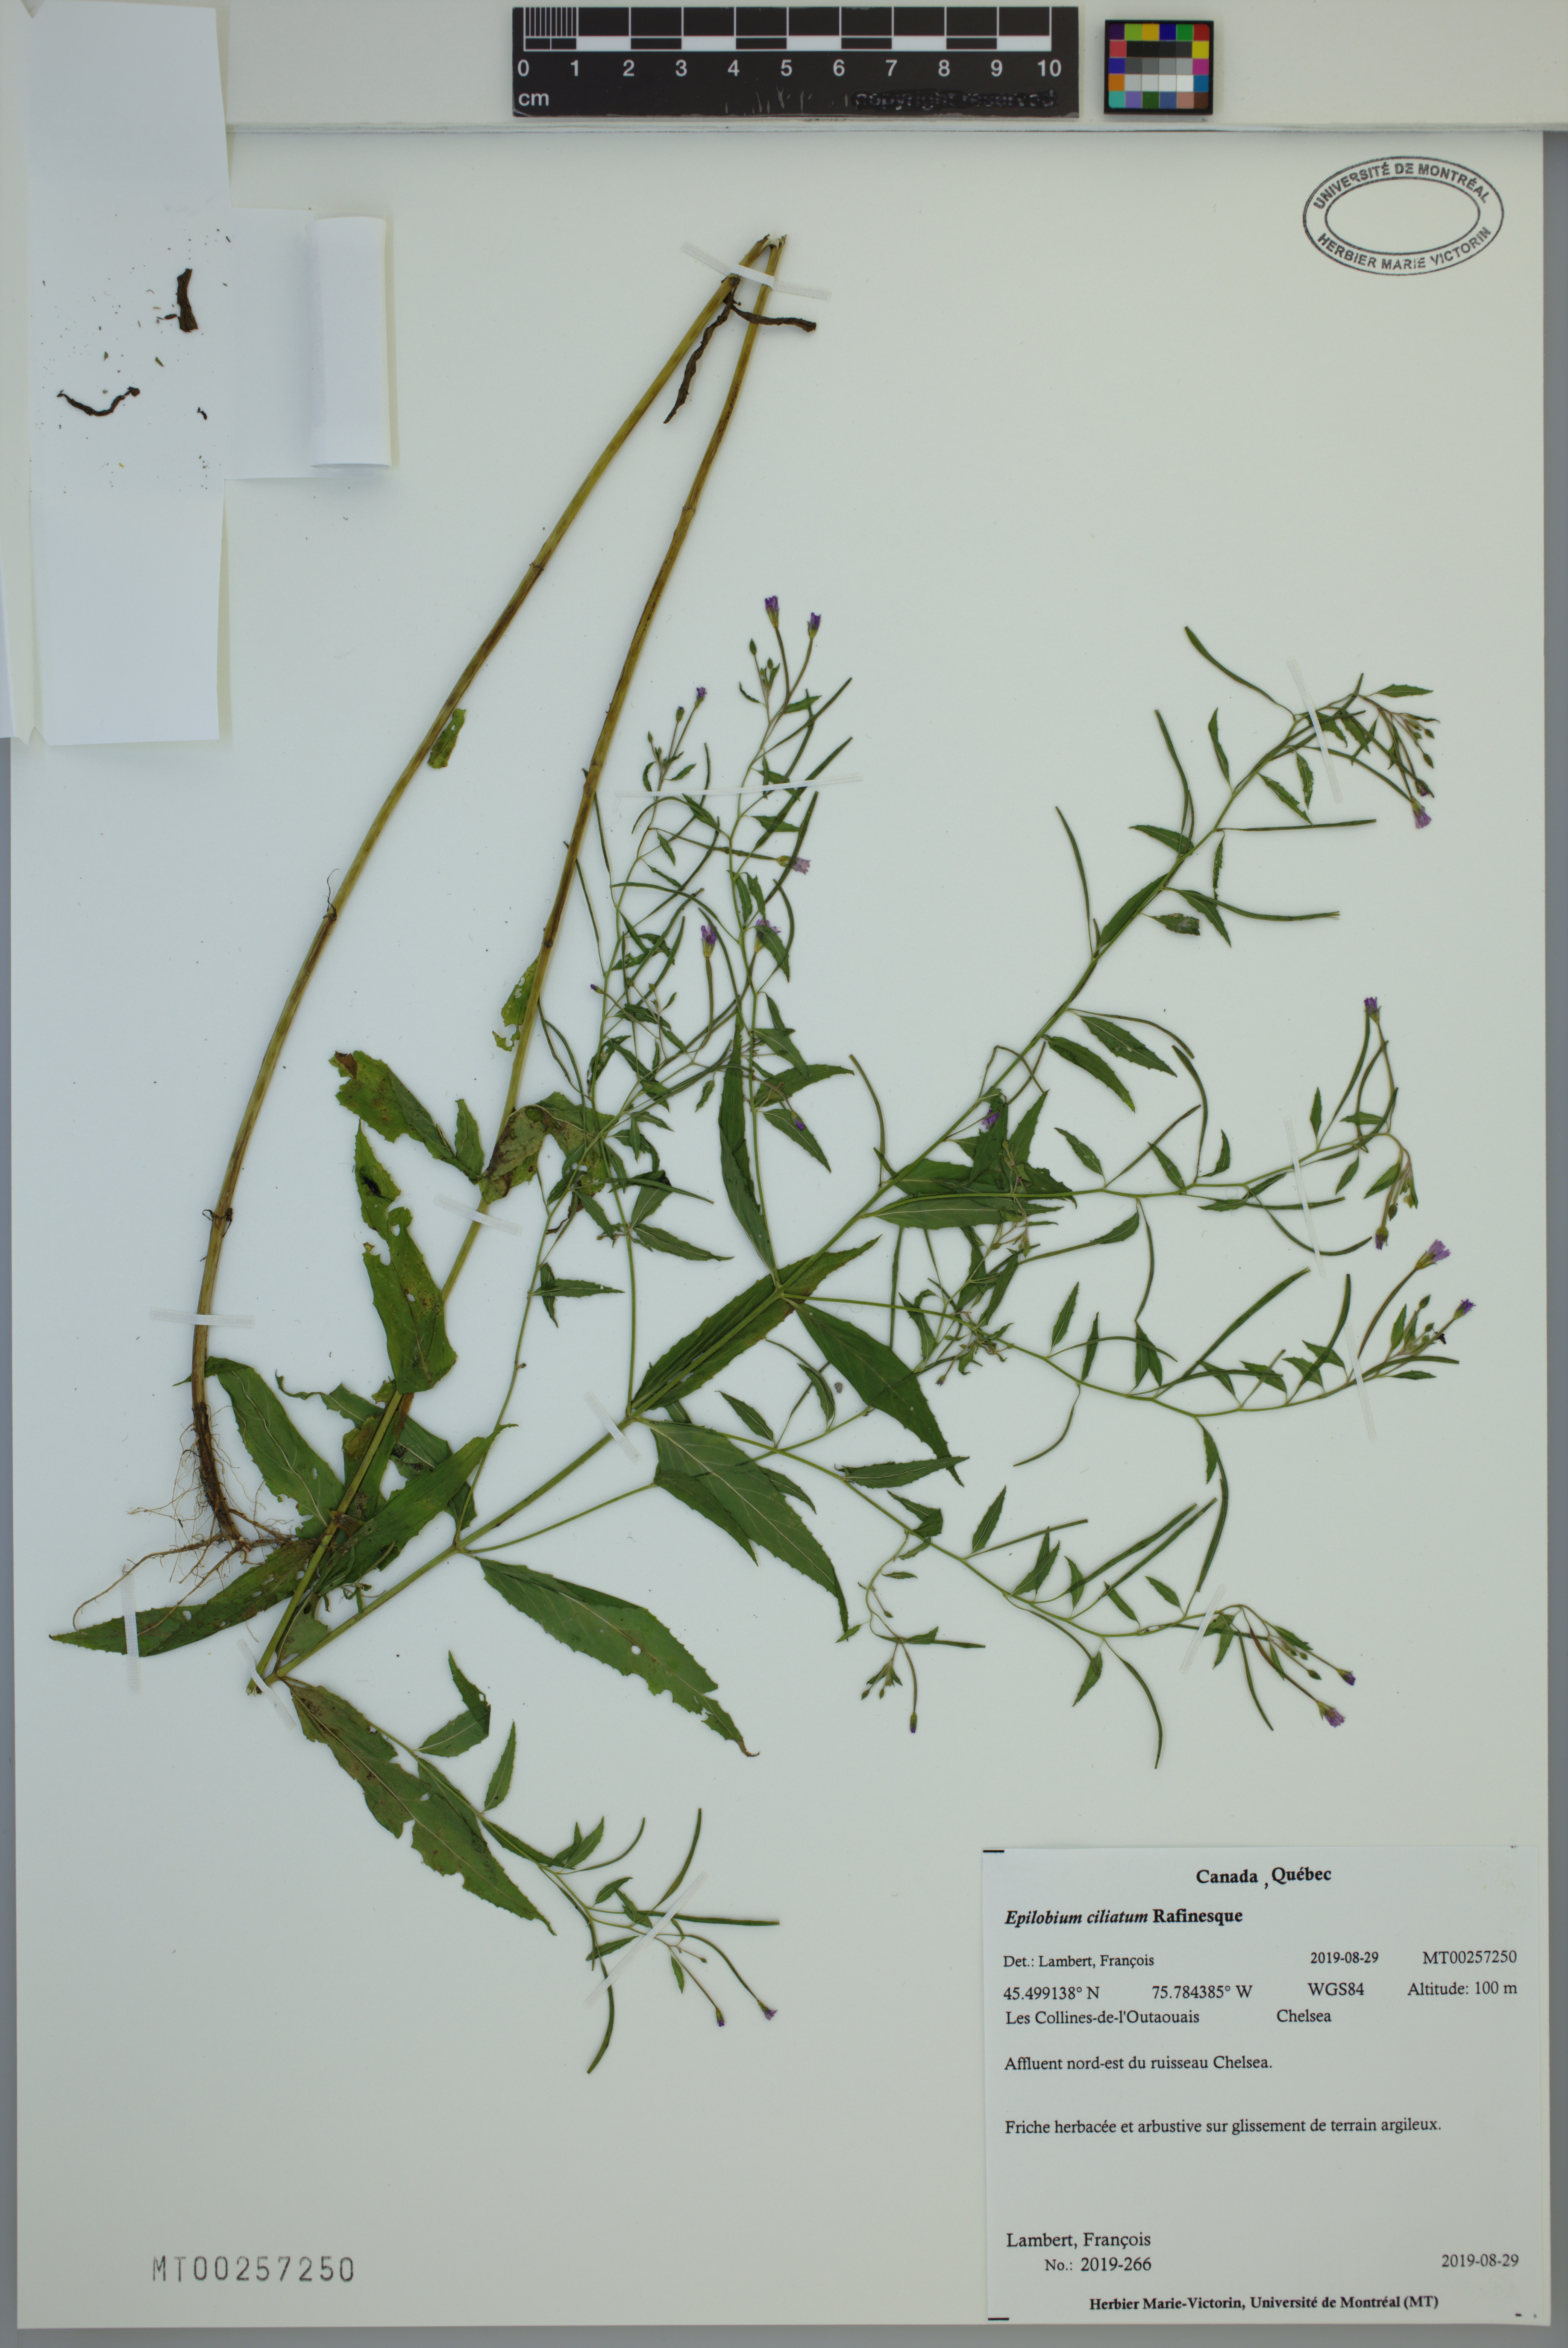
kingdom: Plantae
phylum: Tracheophyta
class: Magnoliopsida
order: Myrtales
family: Onagraceae
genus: Epilobium
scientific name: Epilobium ciliatum
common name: American willowherb
